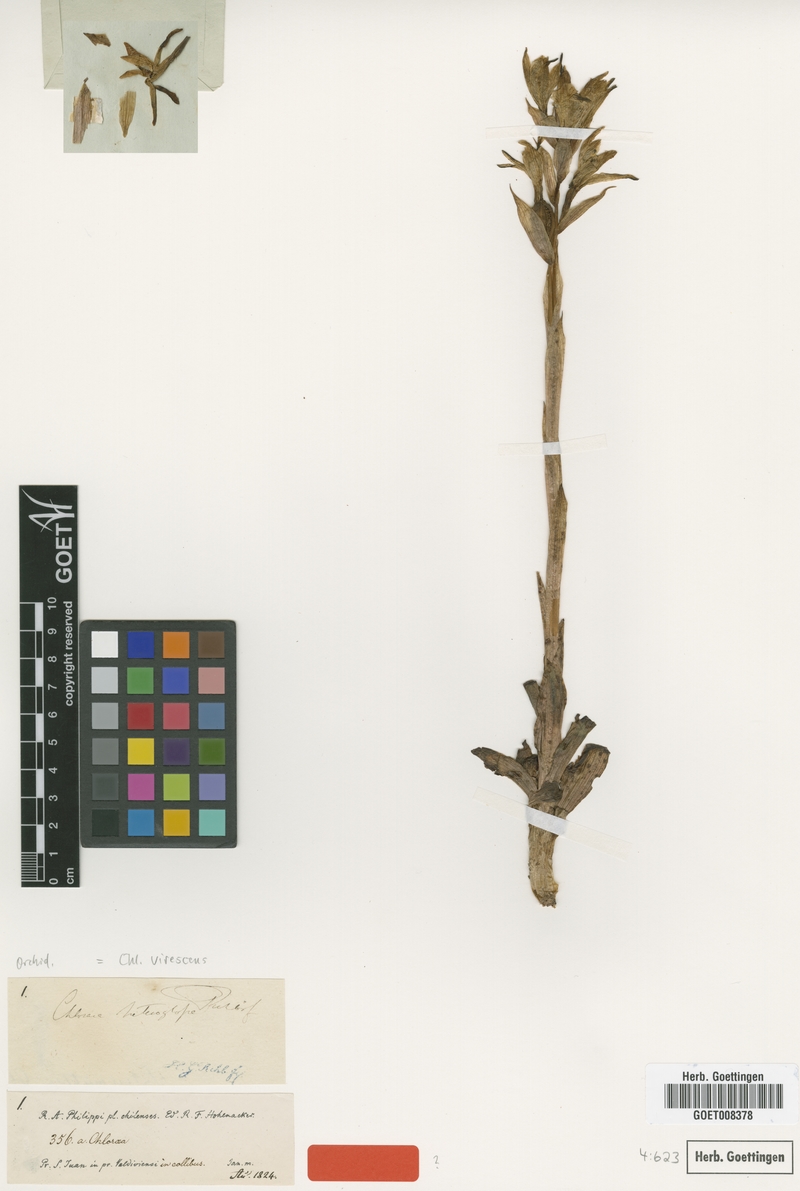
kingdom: Plantae
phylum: Tracheophyta
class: Liliopsida
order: Asparagales
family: Orchidaceae
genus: Chloraea
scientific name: Chloraea piquichen
